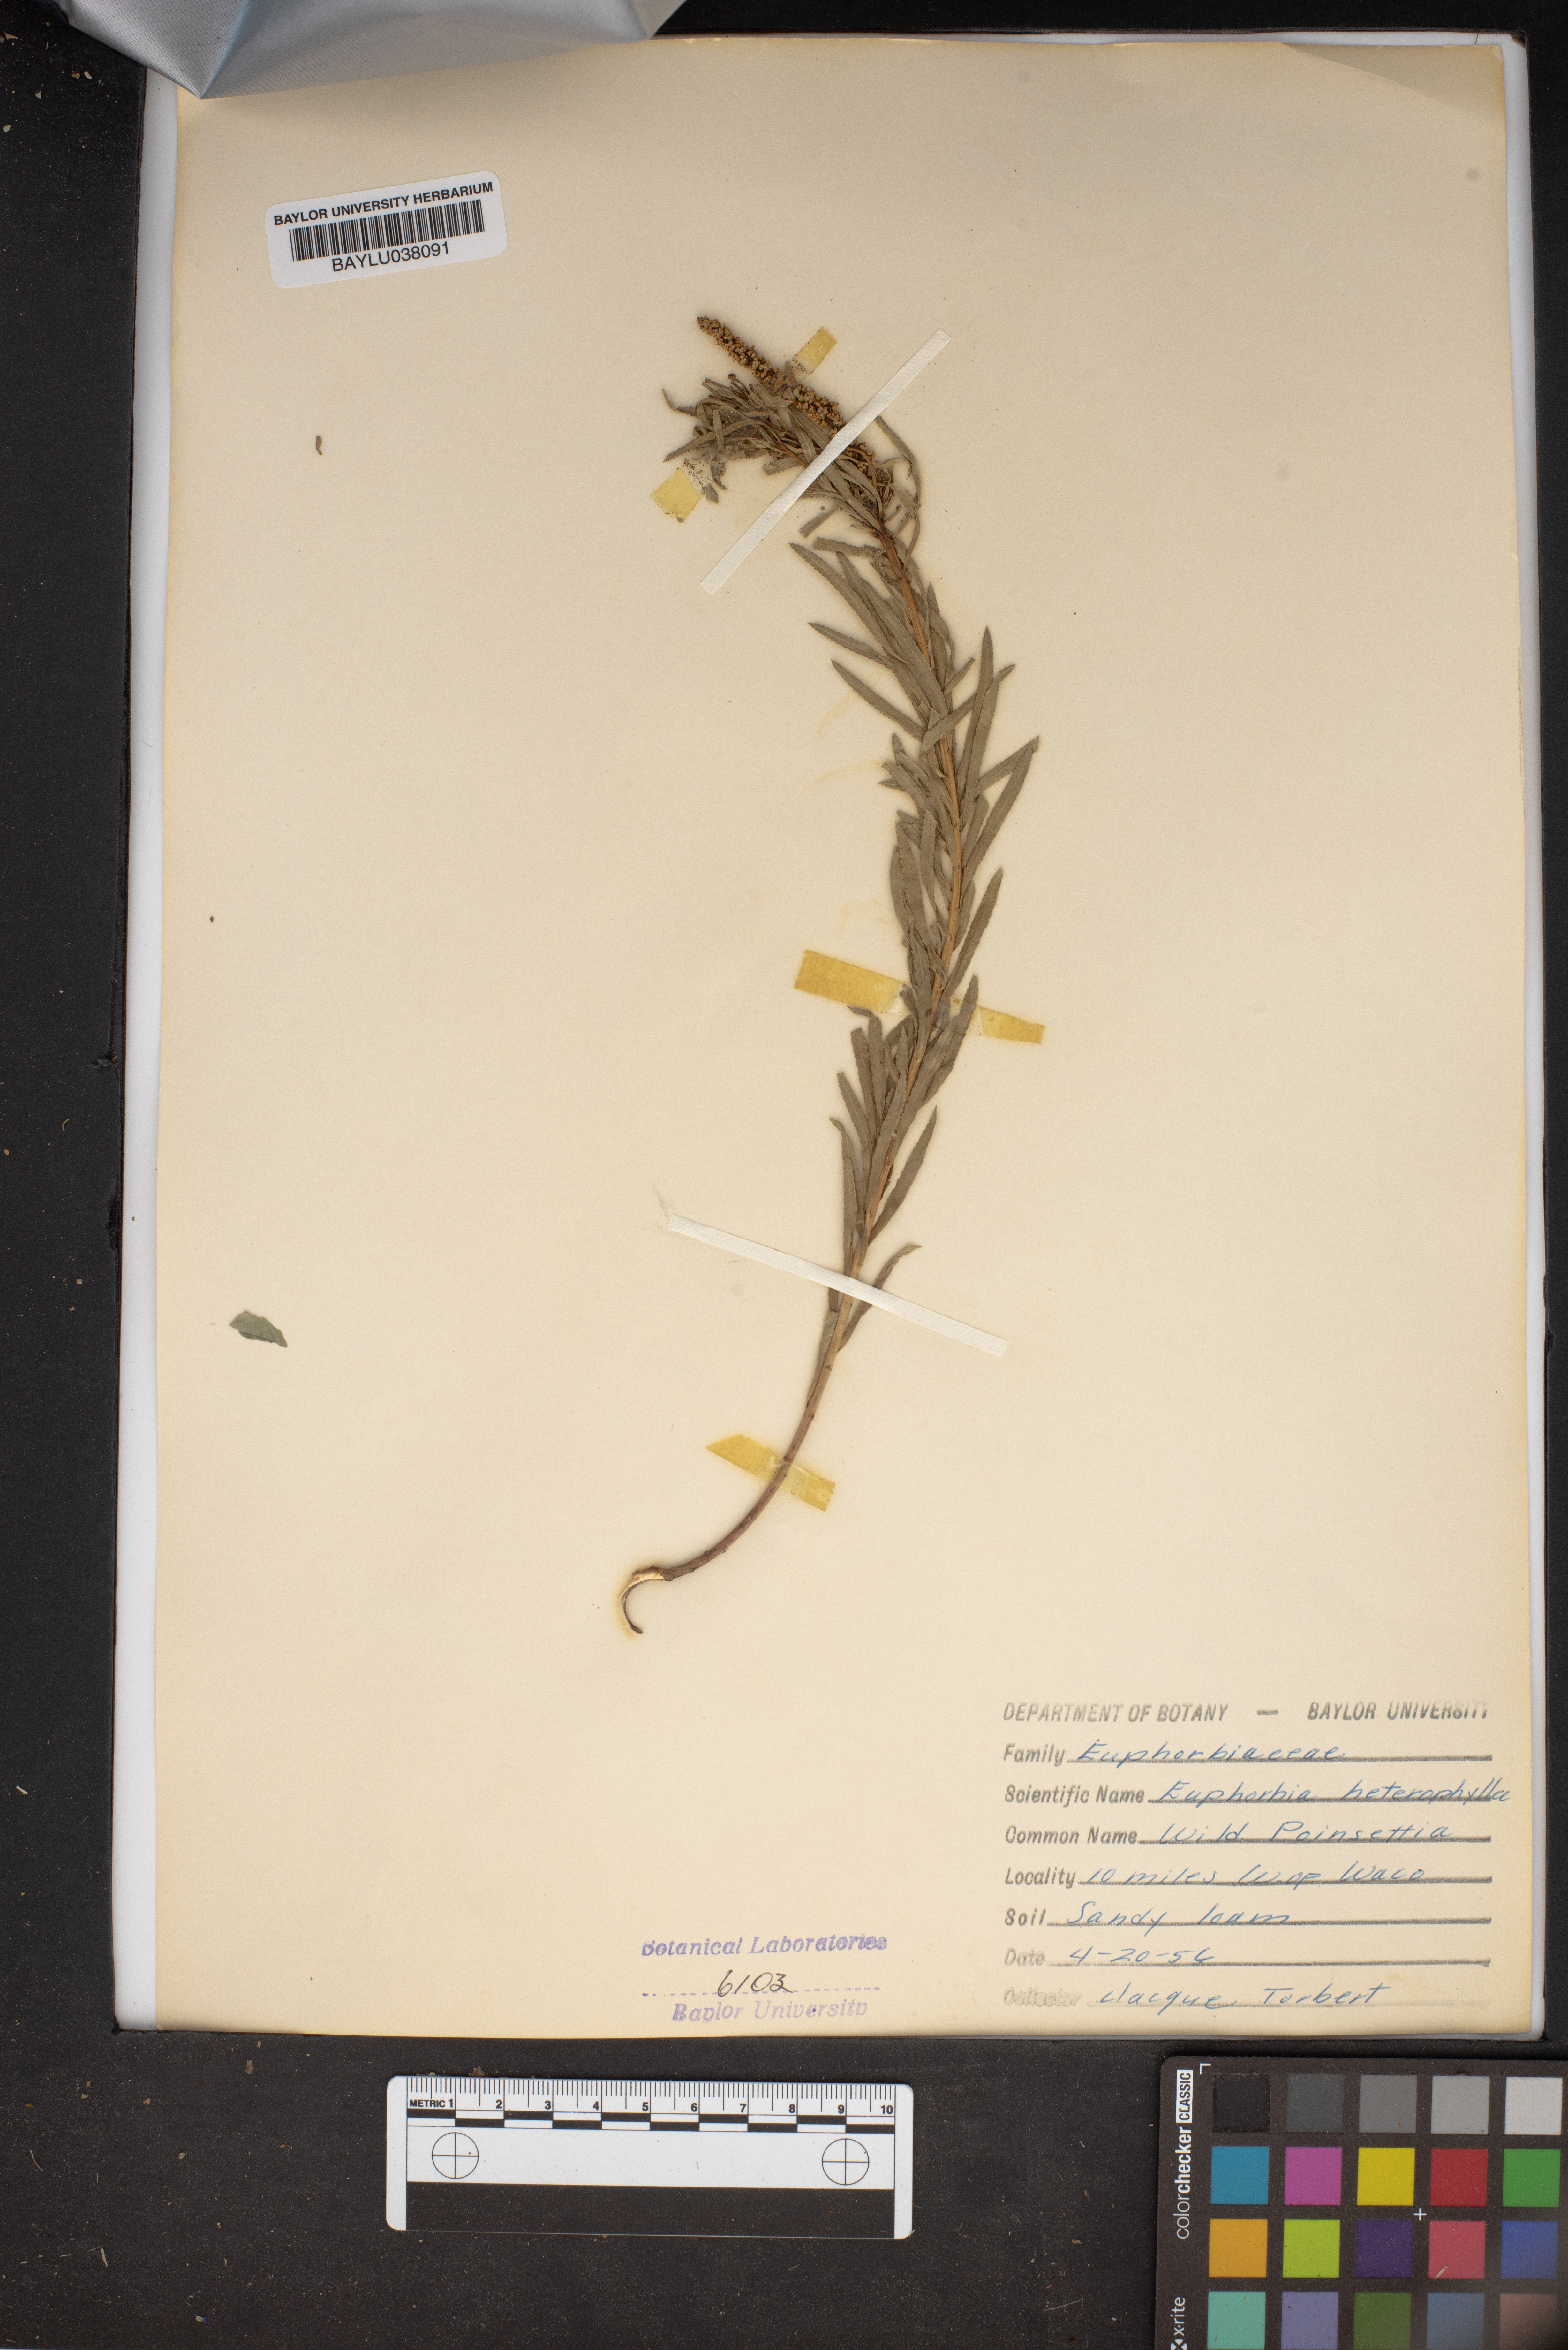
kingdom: Plantae
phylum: Tracheophyta
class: Magnoliopsida
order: Malpighiales
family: Euphorbiaceae
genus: Euphorbia
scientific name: Euphorbia heterophylla
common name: Mexican fireplant
